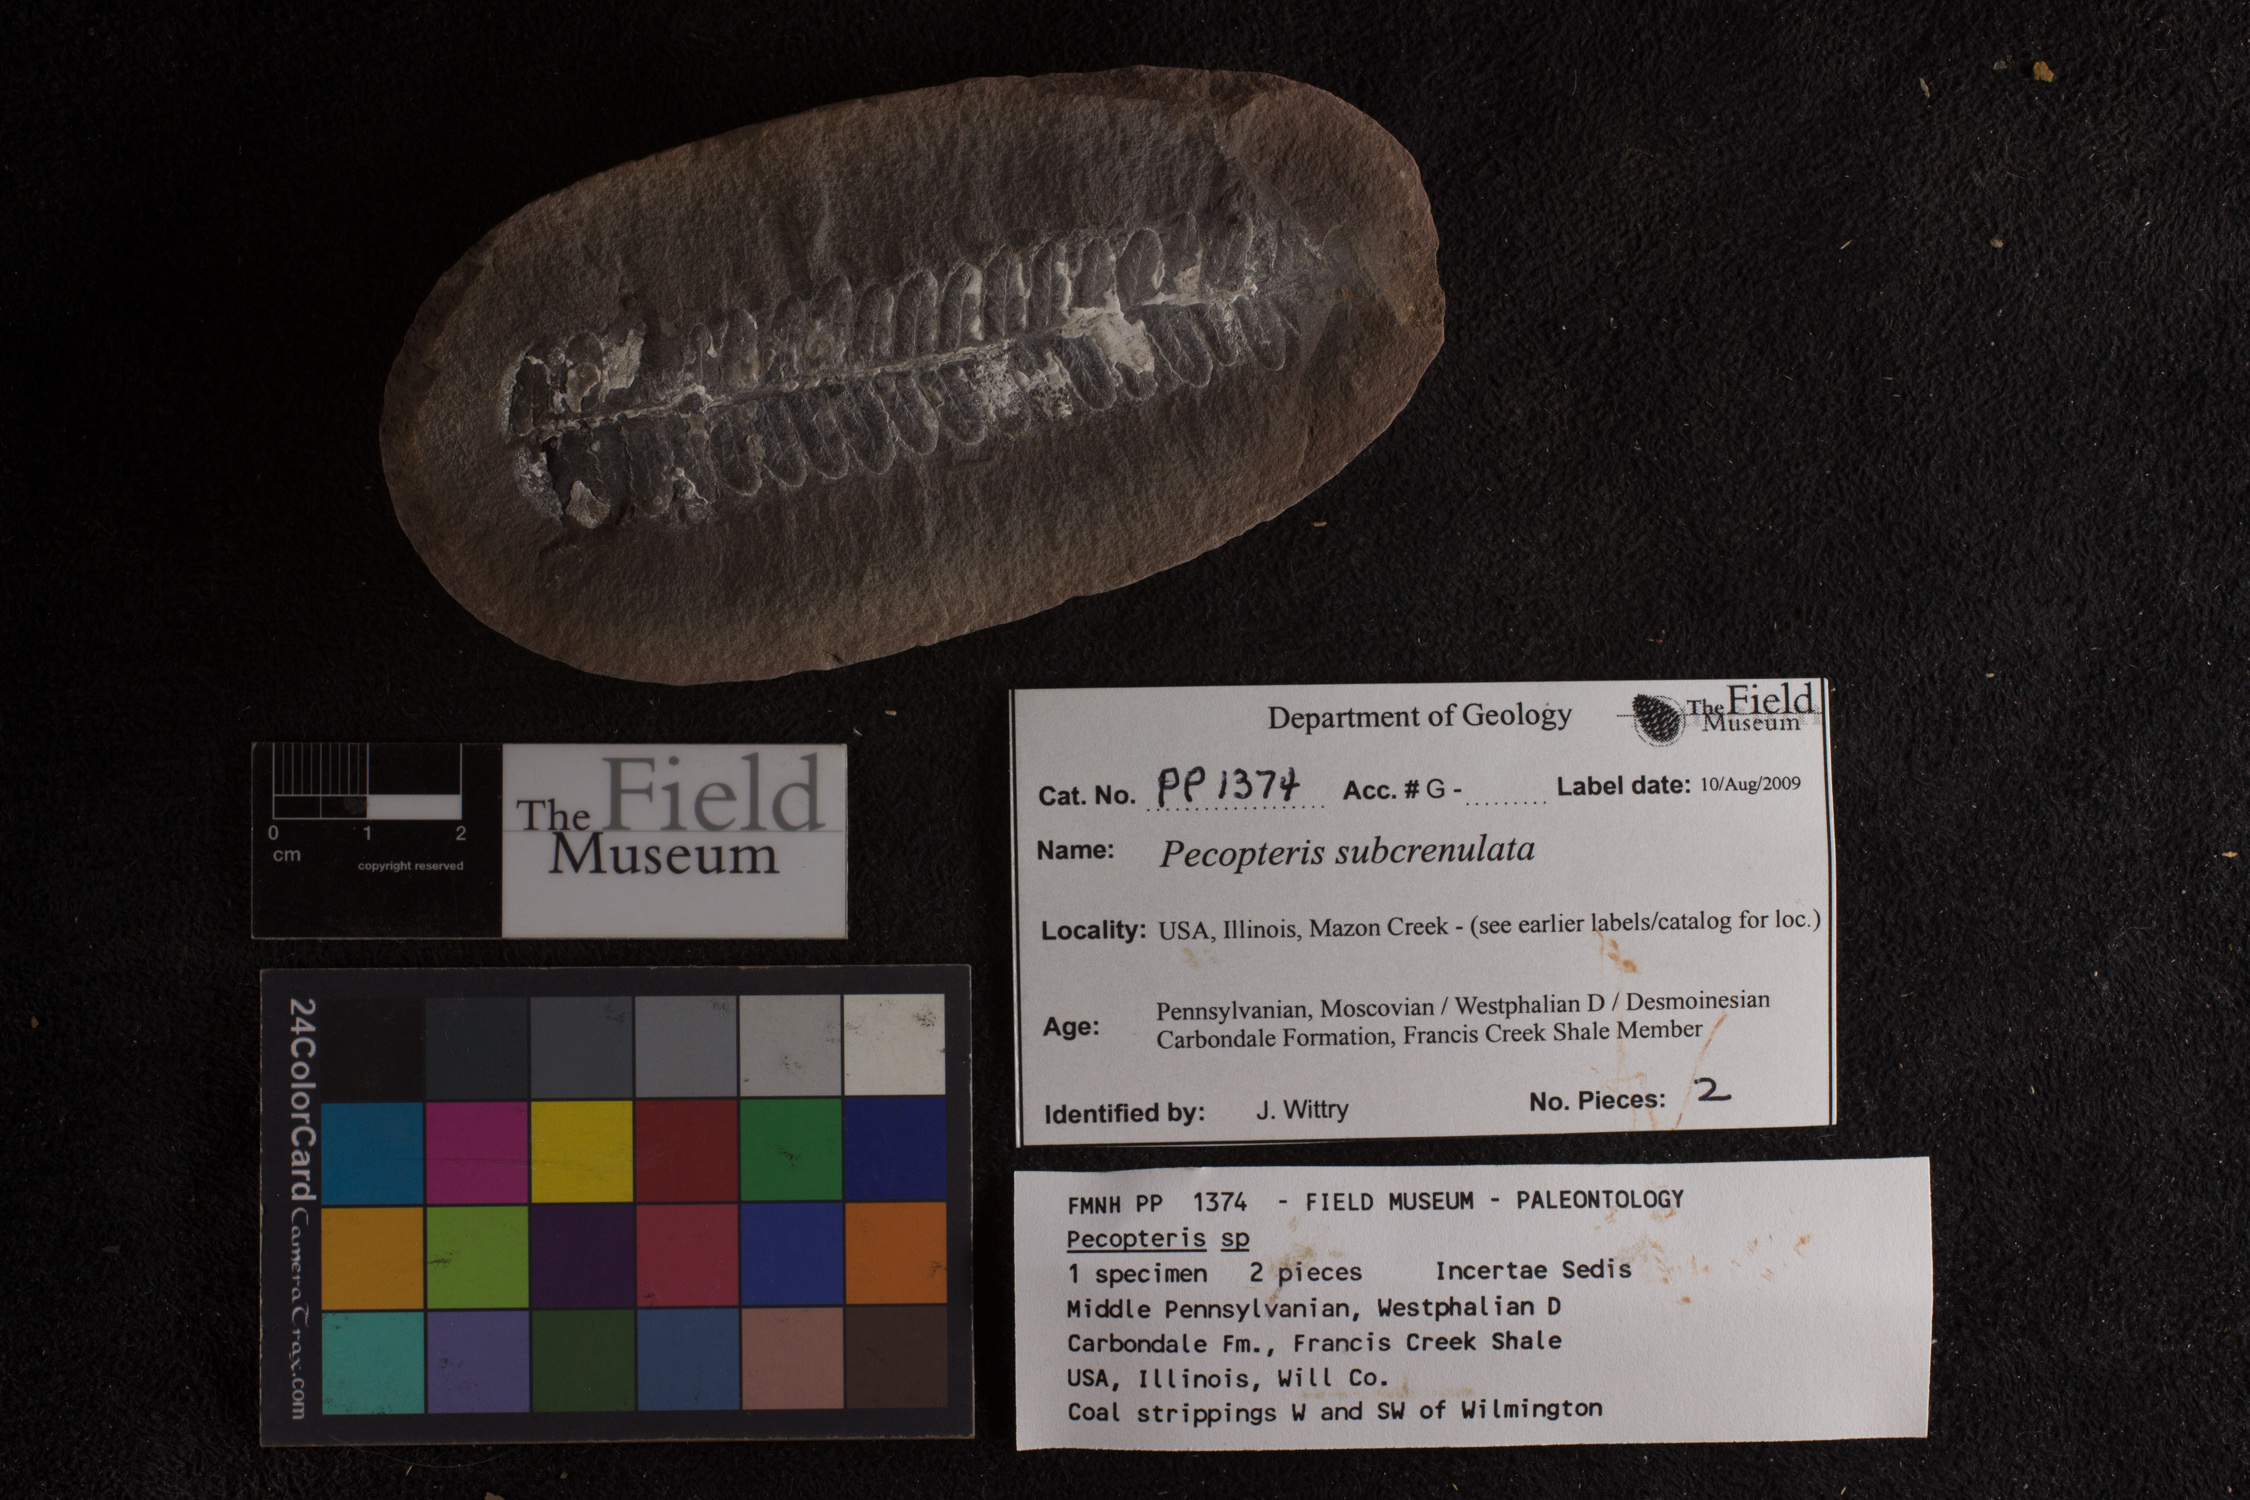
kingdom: Plantae
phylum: Tracheophyta
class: Polypodiopsida
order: Marattiales
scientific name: Marattiales
